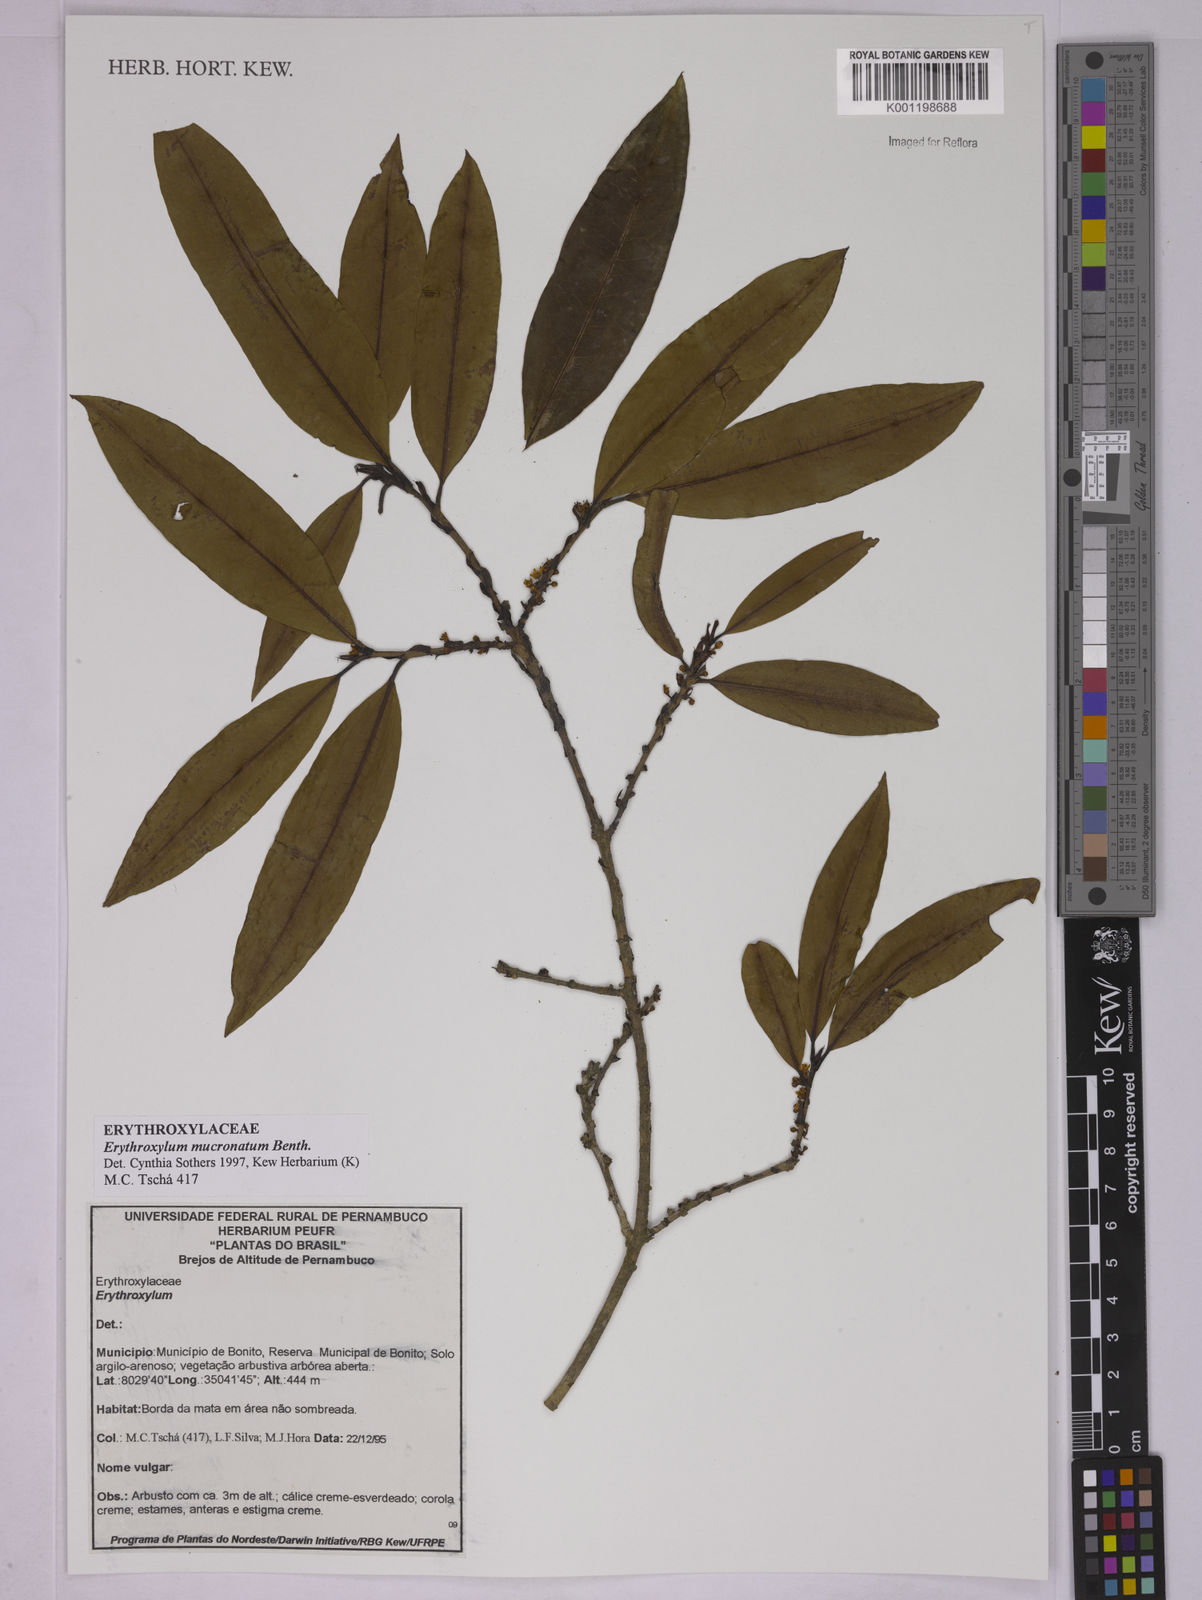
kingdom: Plantae
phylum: Tracheophyta
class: Magnoliopsida
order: Malpighiales
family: Erythroxylaceae
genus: Erythroxylum
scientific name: Erythroxylum mucronatum
